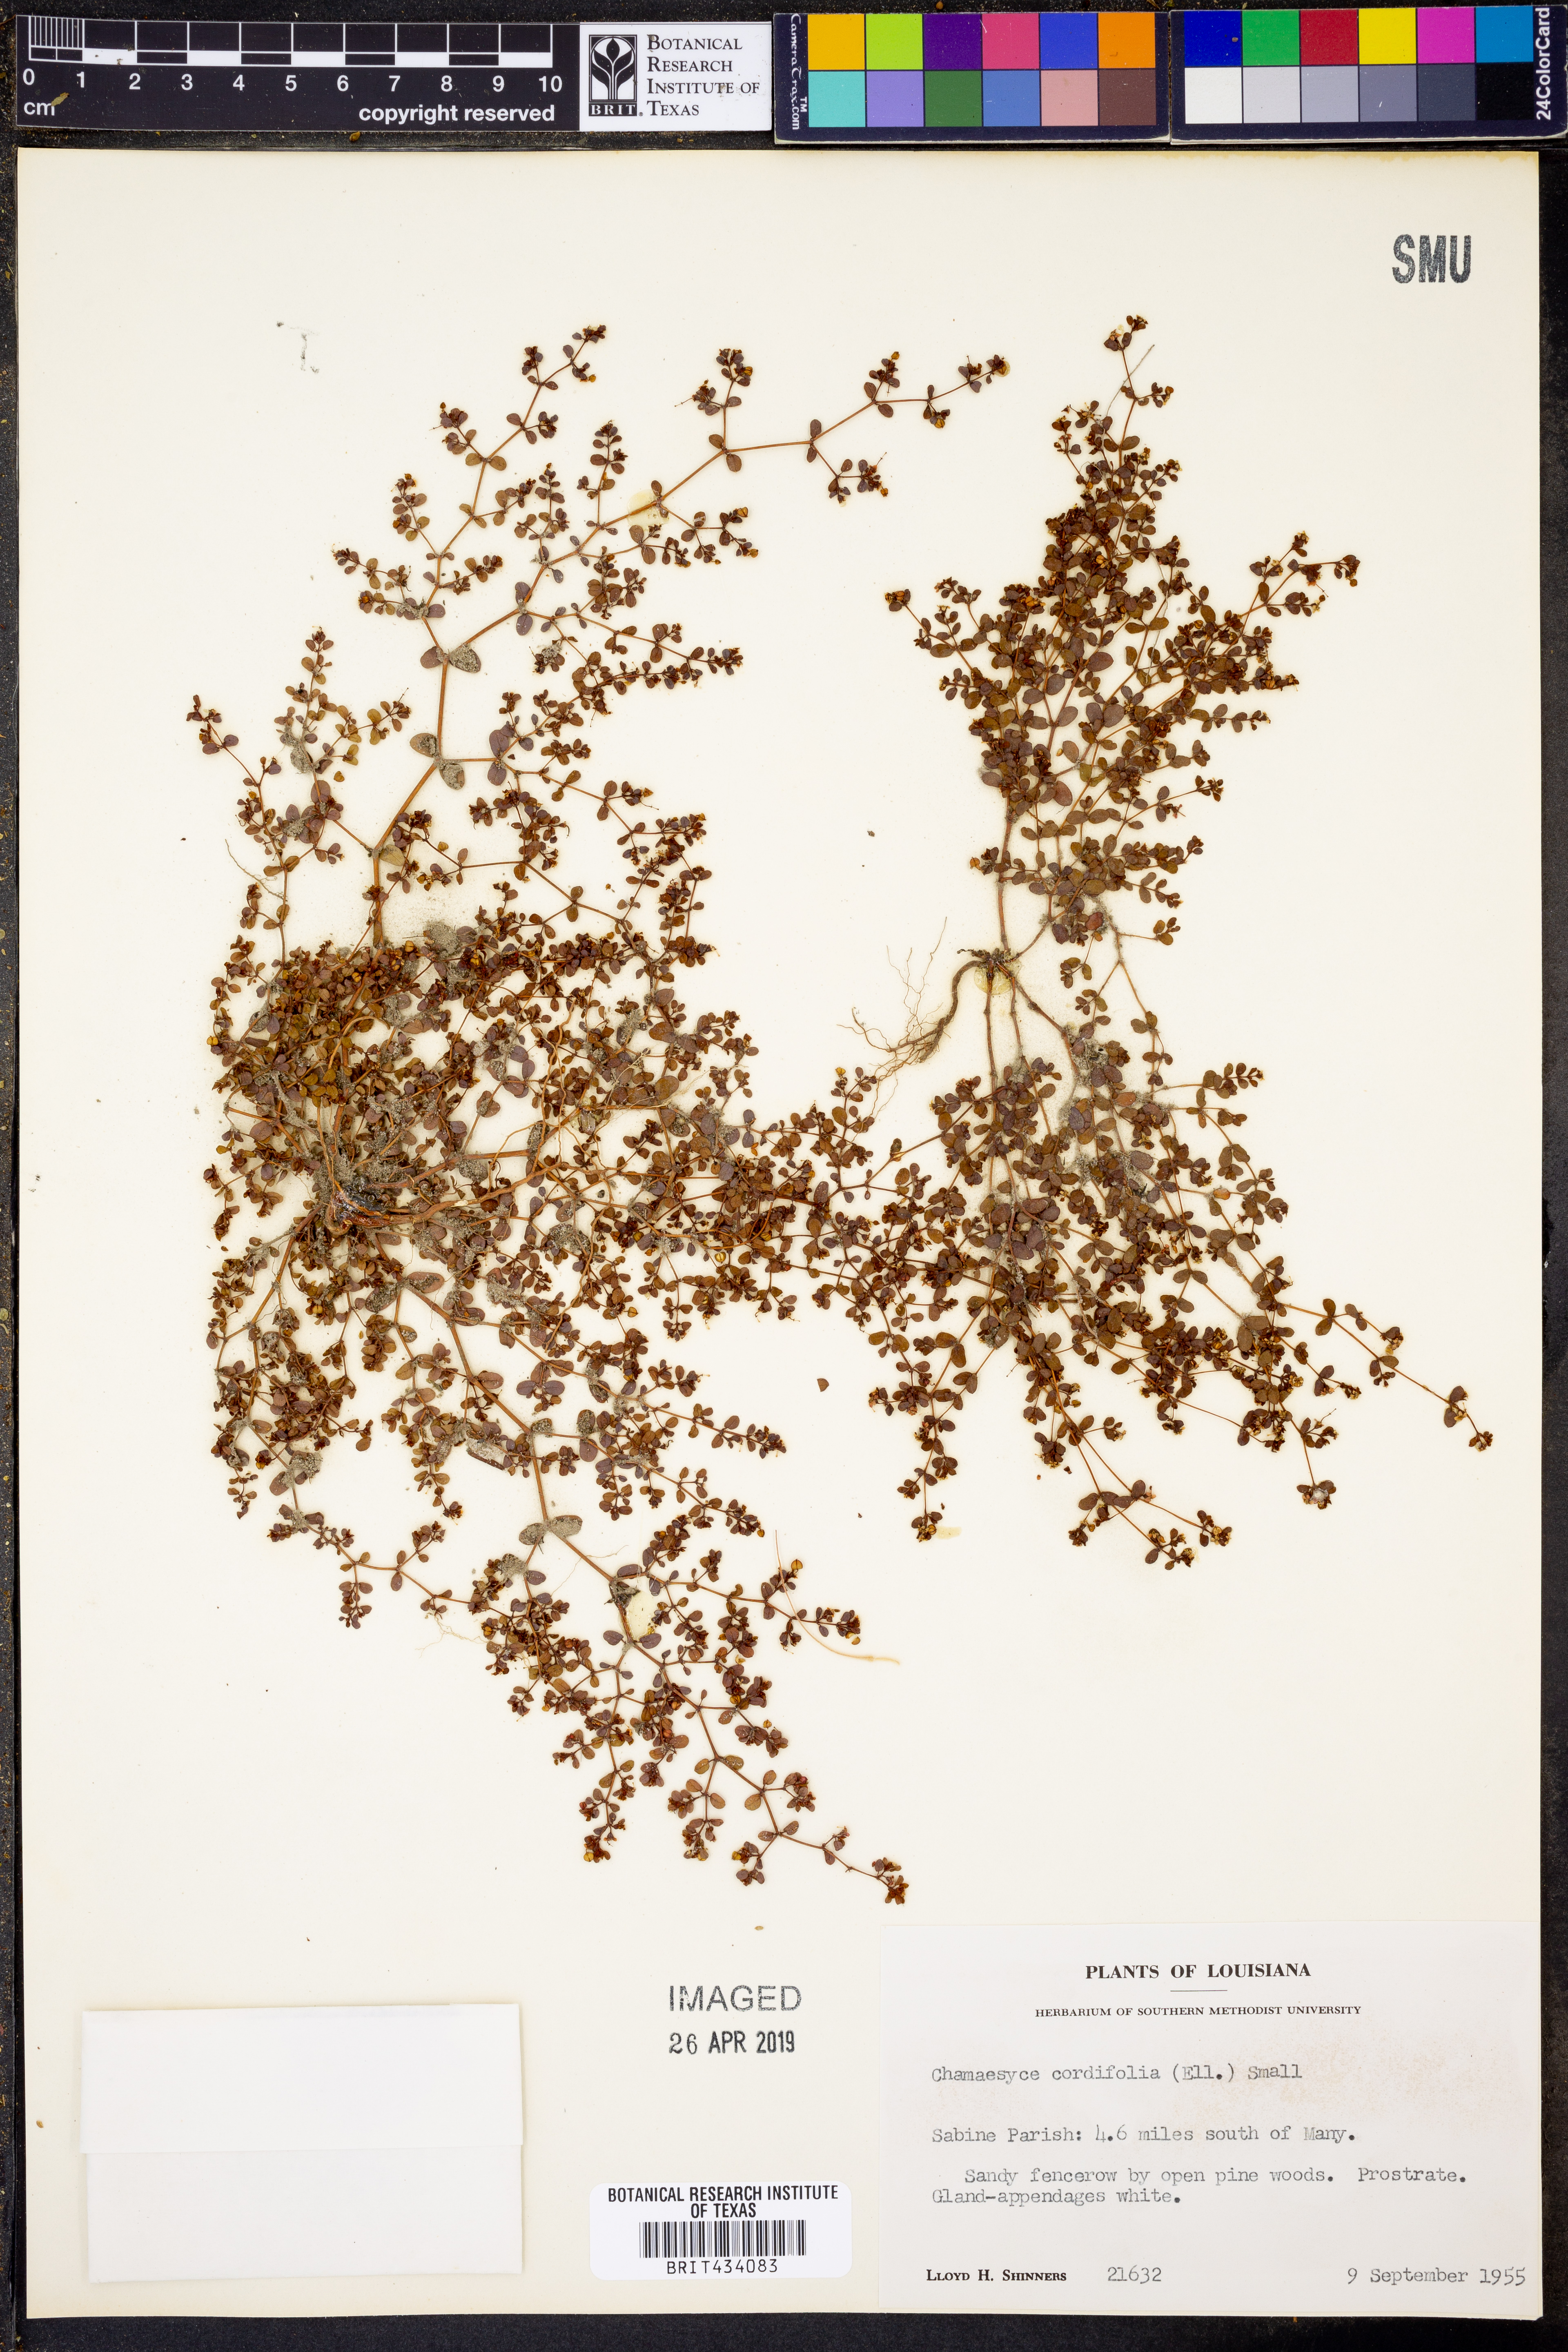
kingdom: Plantae
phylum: Tracheophyta
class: Magnoliopsida
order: Malpighiales
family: Euphorbiaceae
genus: Euphorbia
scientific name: Euphorbia cordifolia
